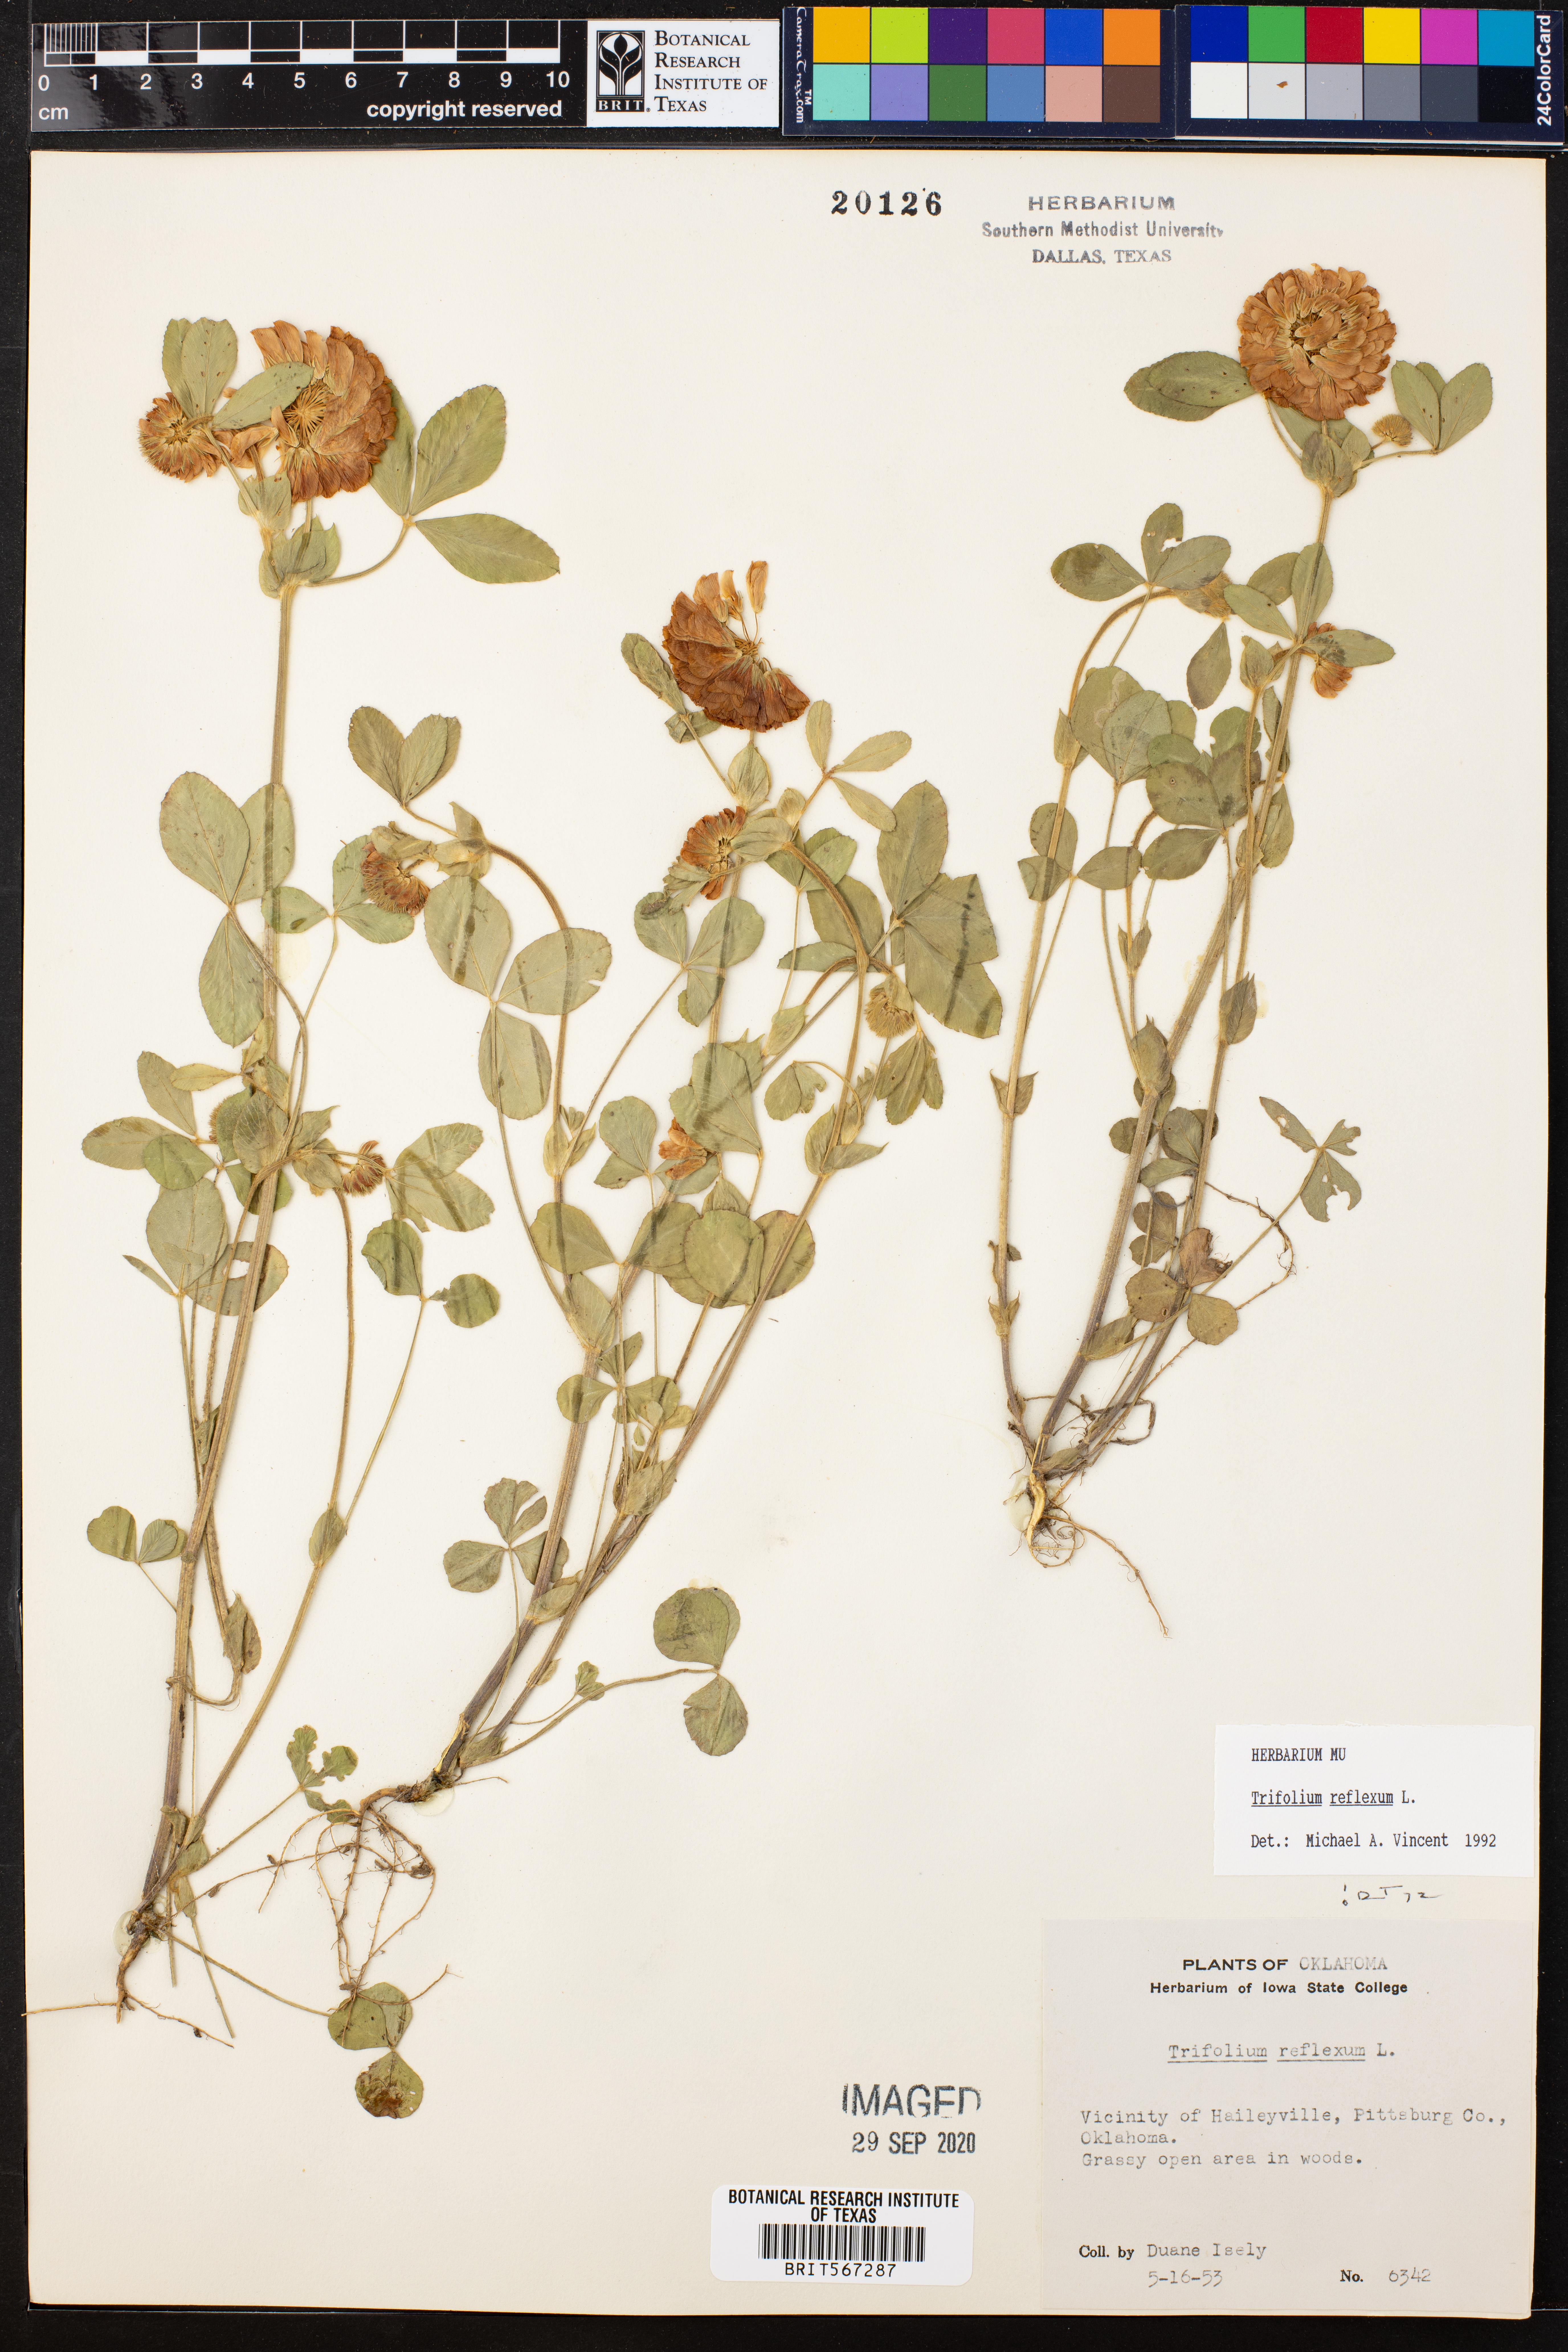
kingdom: Plantae
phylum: Tracheophyta
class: Magnoliopsida
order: Fabales
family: Fabaceae
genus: Trifolium
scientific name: Trifolium reflexum
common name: Buffalo clover
